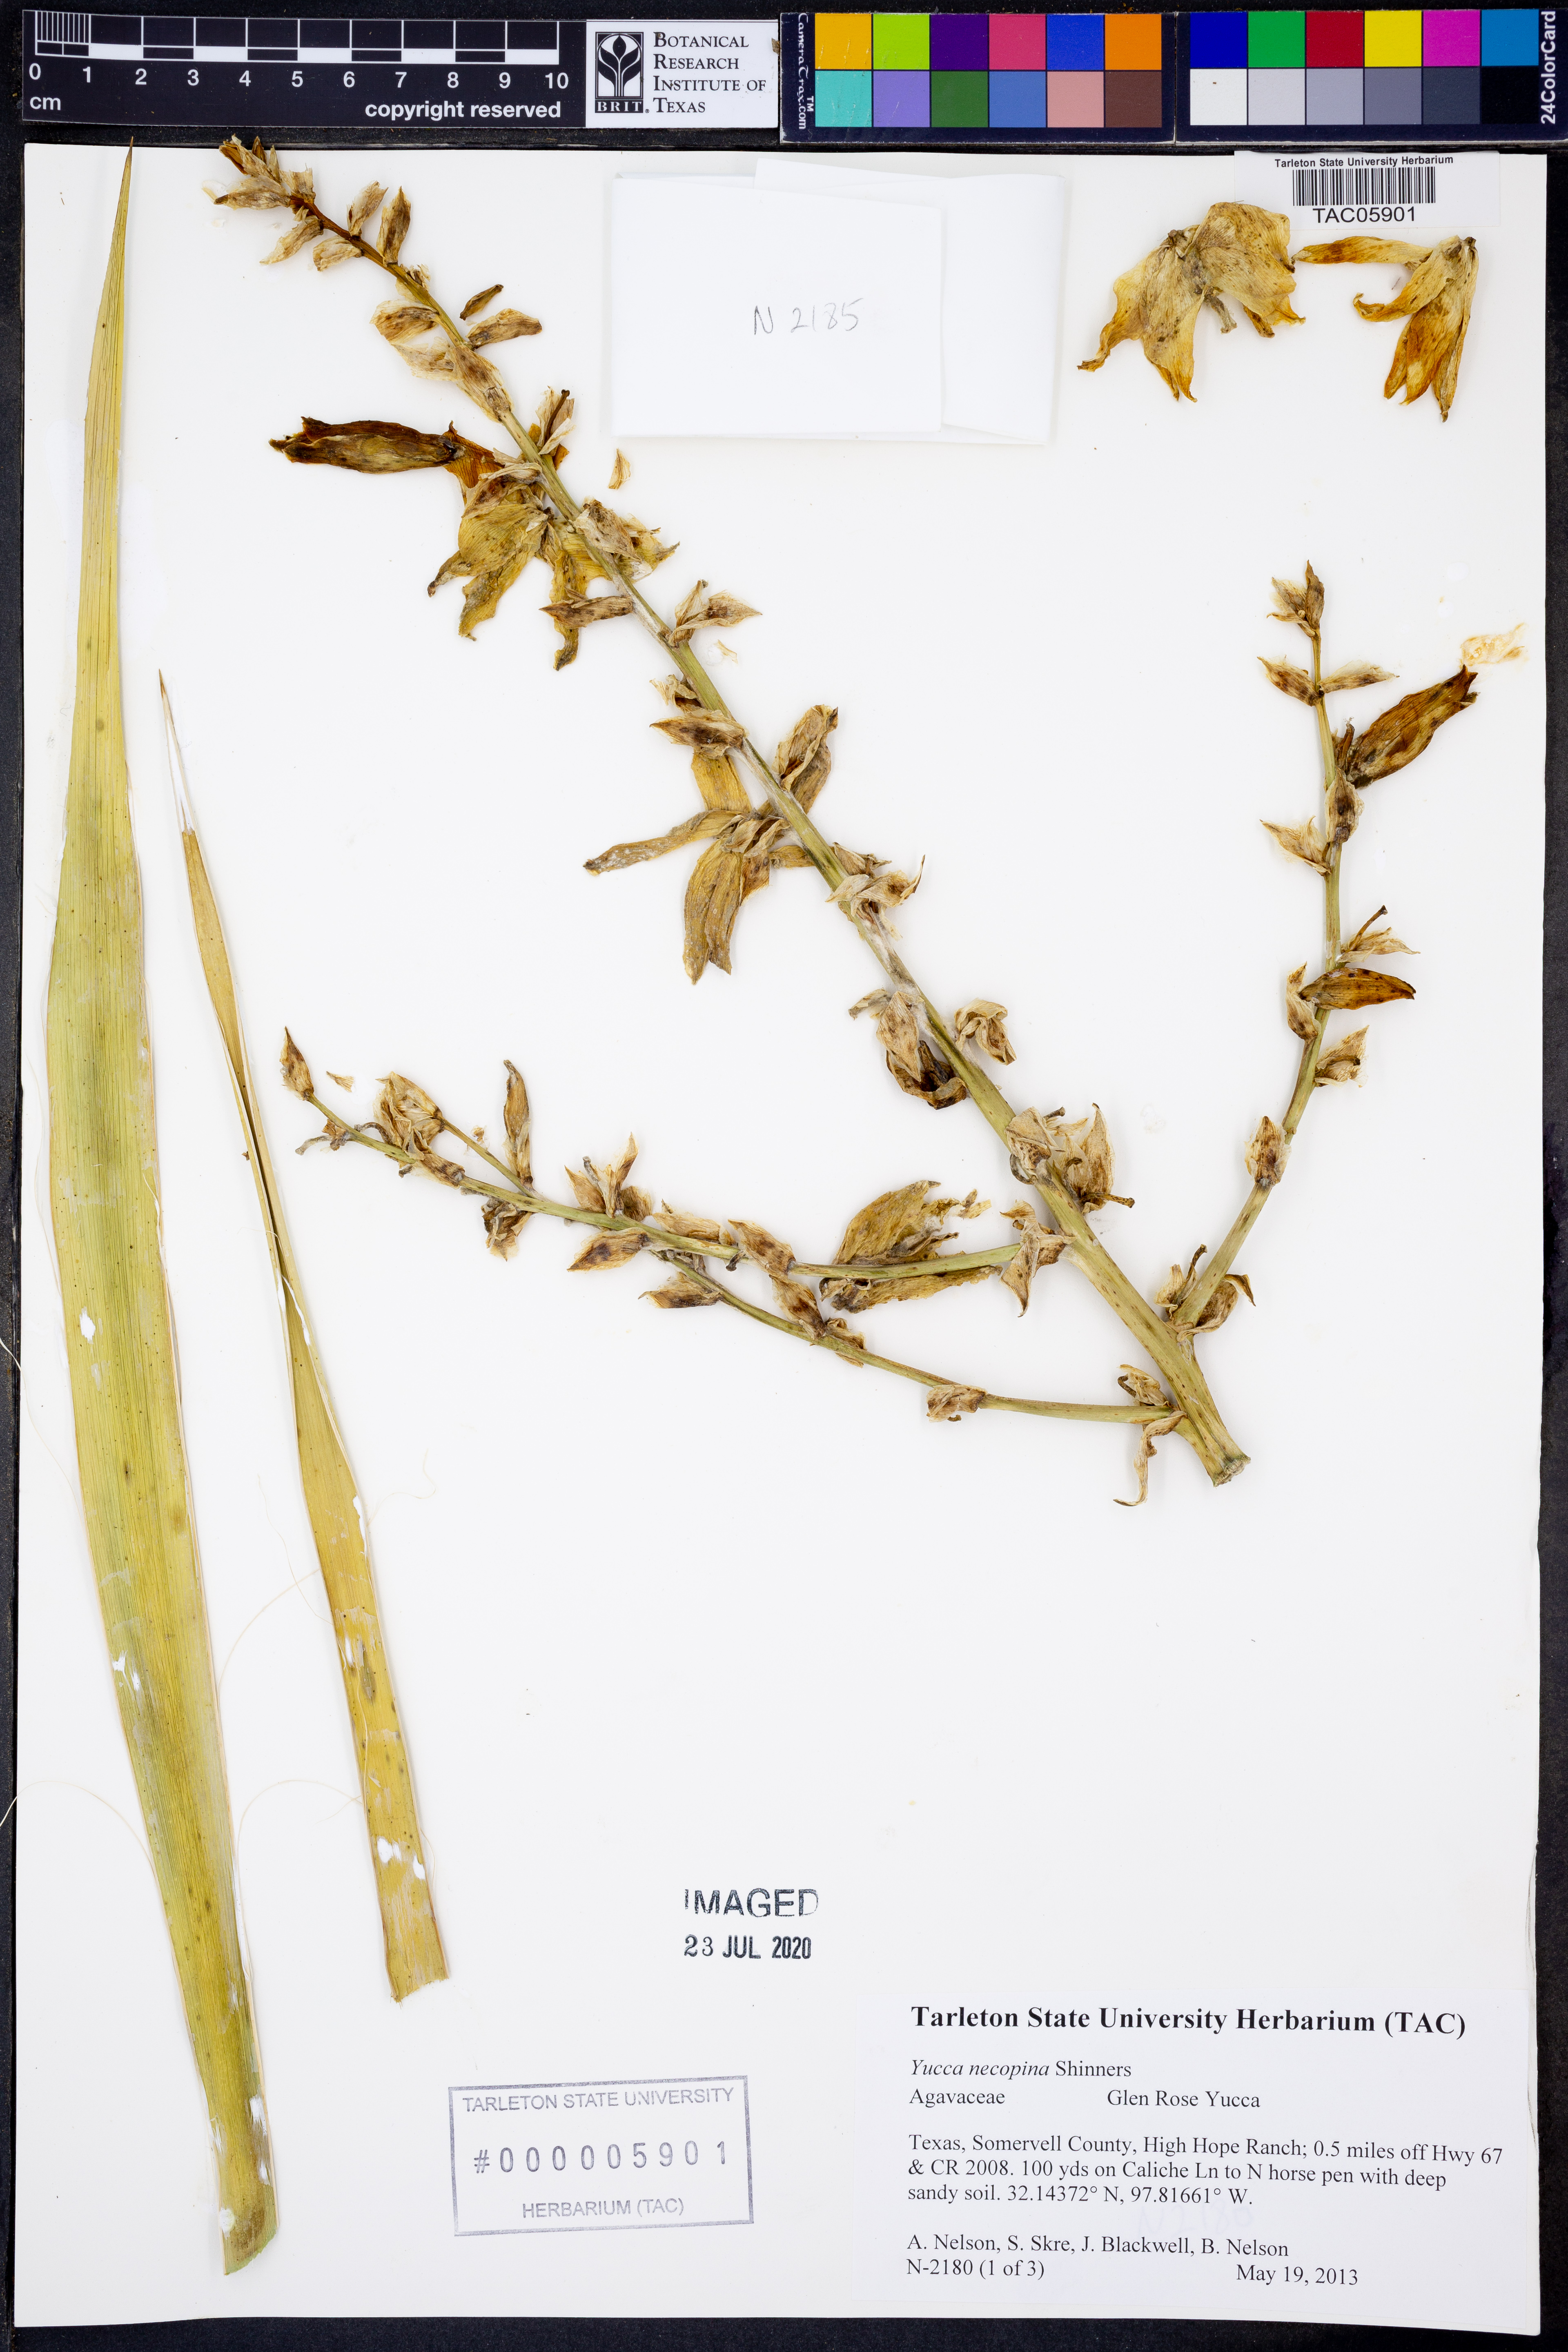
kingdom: Plantae
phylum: Tracheophyta
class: Liliopsida
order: Asparagales
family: Asparagaceae
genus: Yucca
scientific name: Yucca necopina
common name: Glen rose yucca
